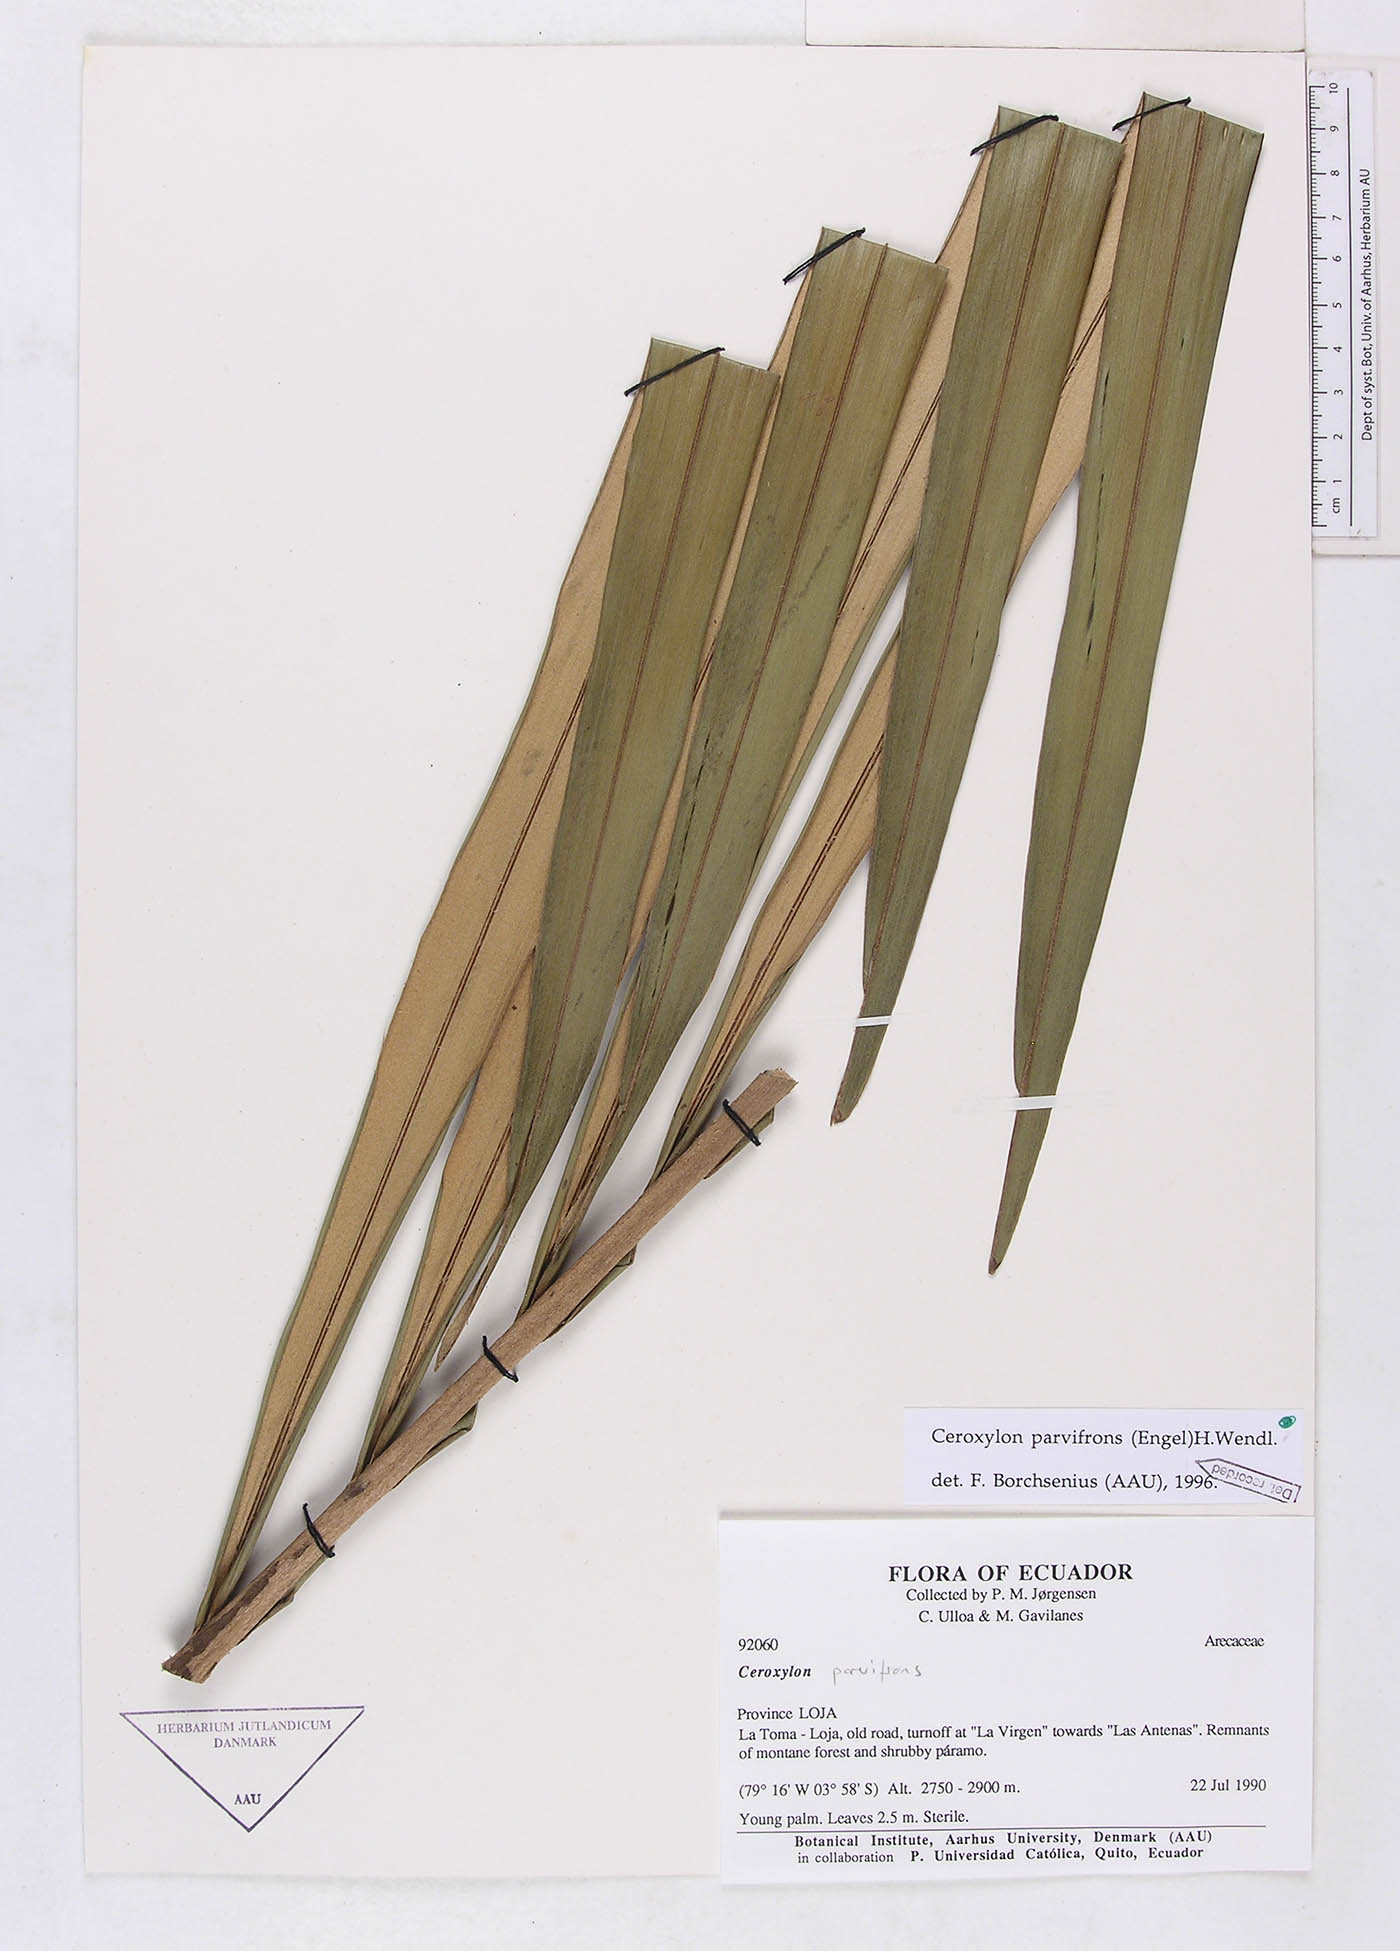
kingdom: Plantae
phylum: Tracheophyta
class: Liliopsida
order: Arecales
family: Arecaceae
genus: Ceroxylon
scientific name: Ceroxylon parvifrons
